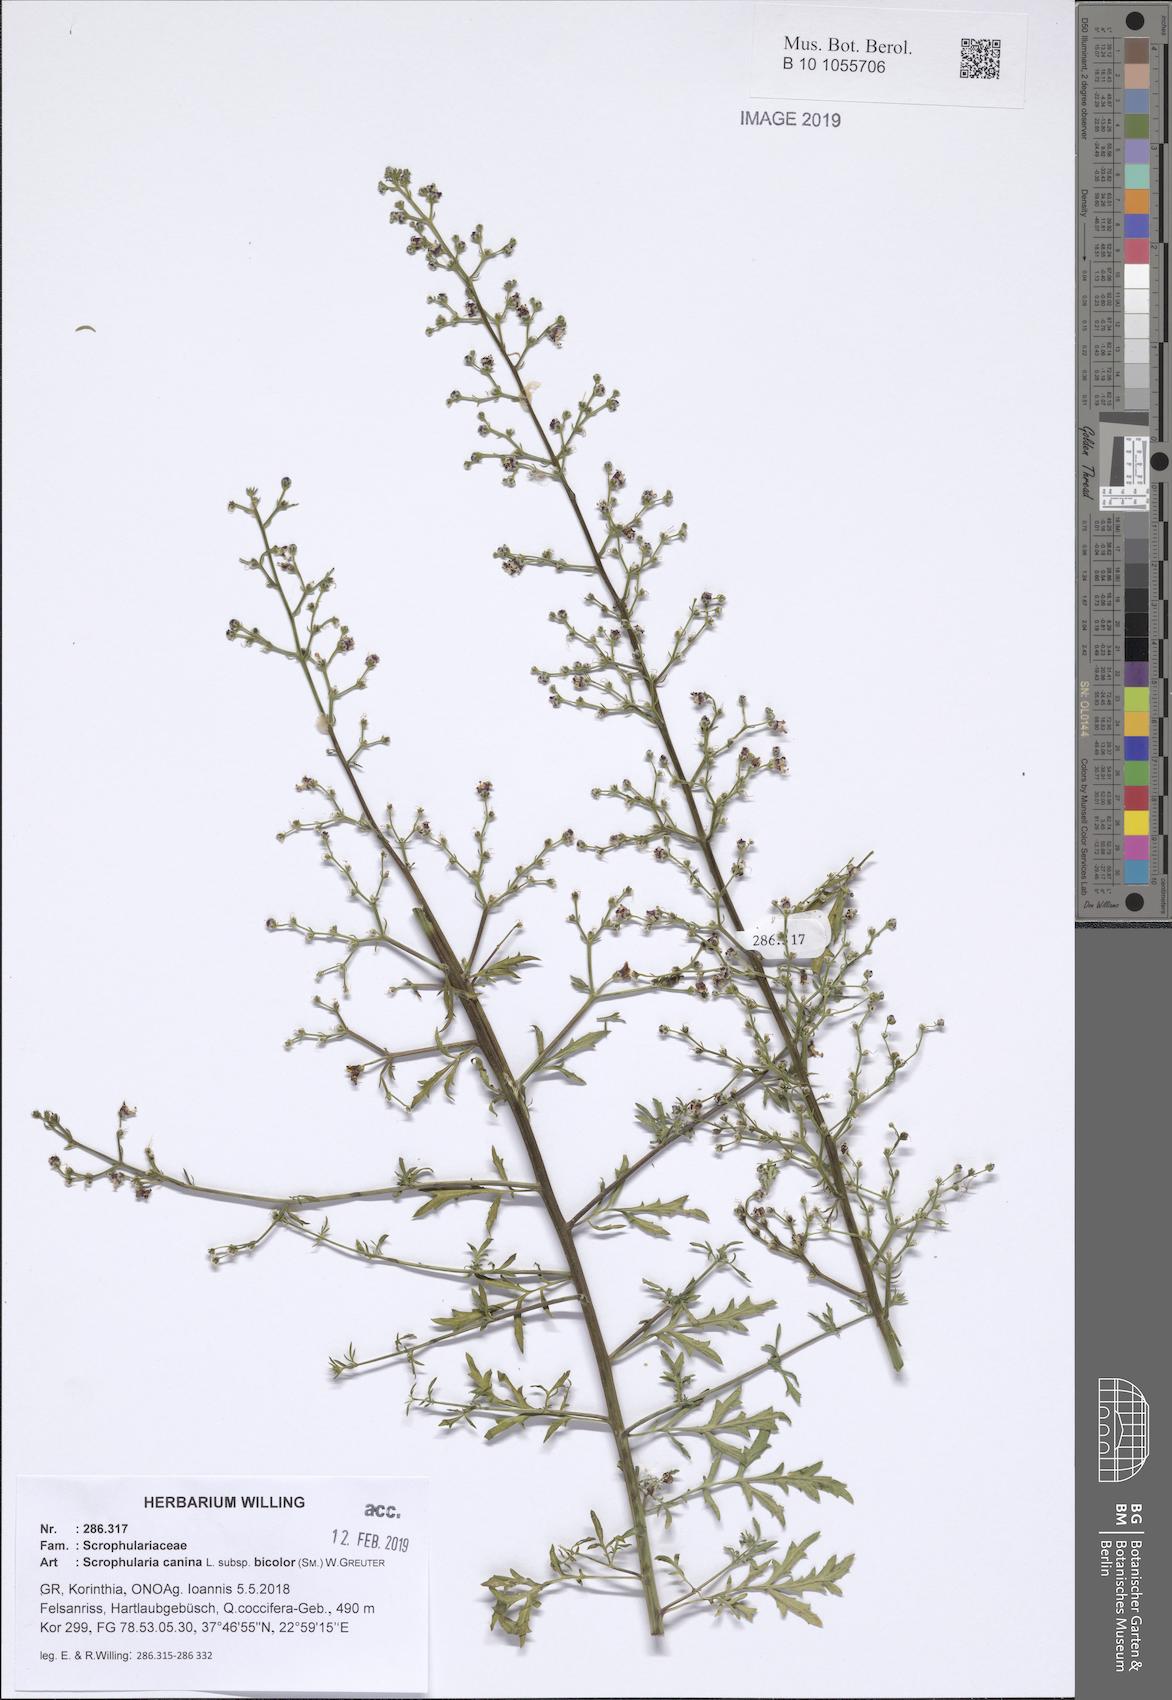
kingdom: Plantae
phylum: Tracheophyta
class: Magnoliopsida
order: Lamiales
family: Scrophulariaceae
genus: Scrophularia
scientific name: Scrophularia canina
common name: French figwort
